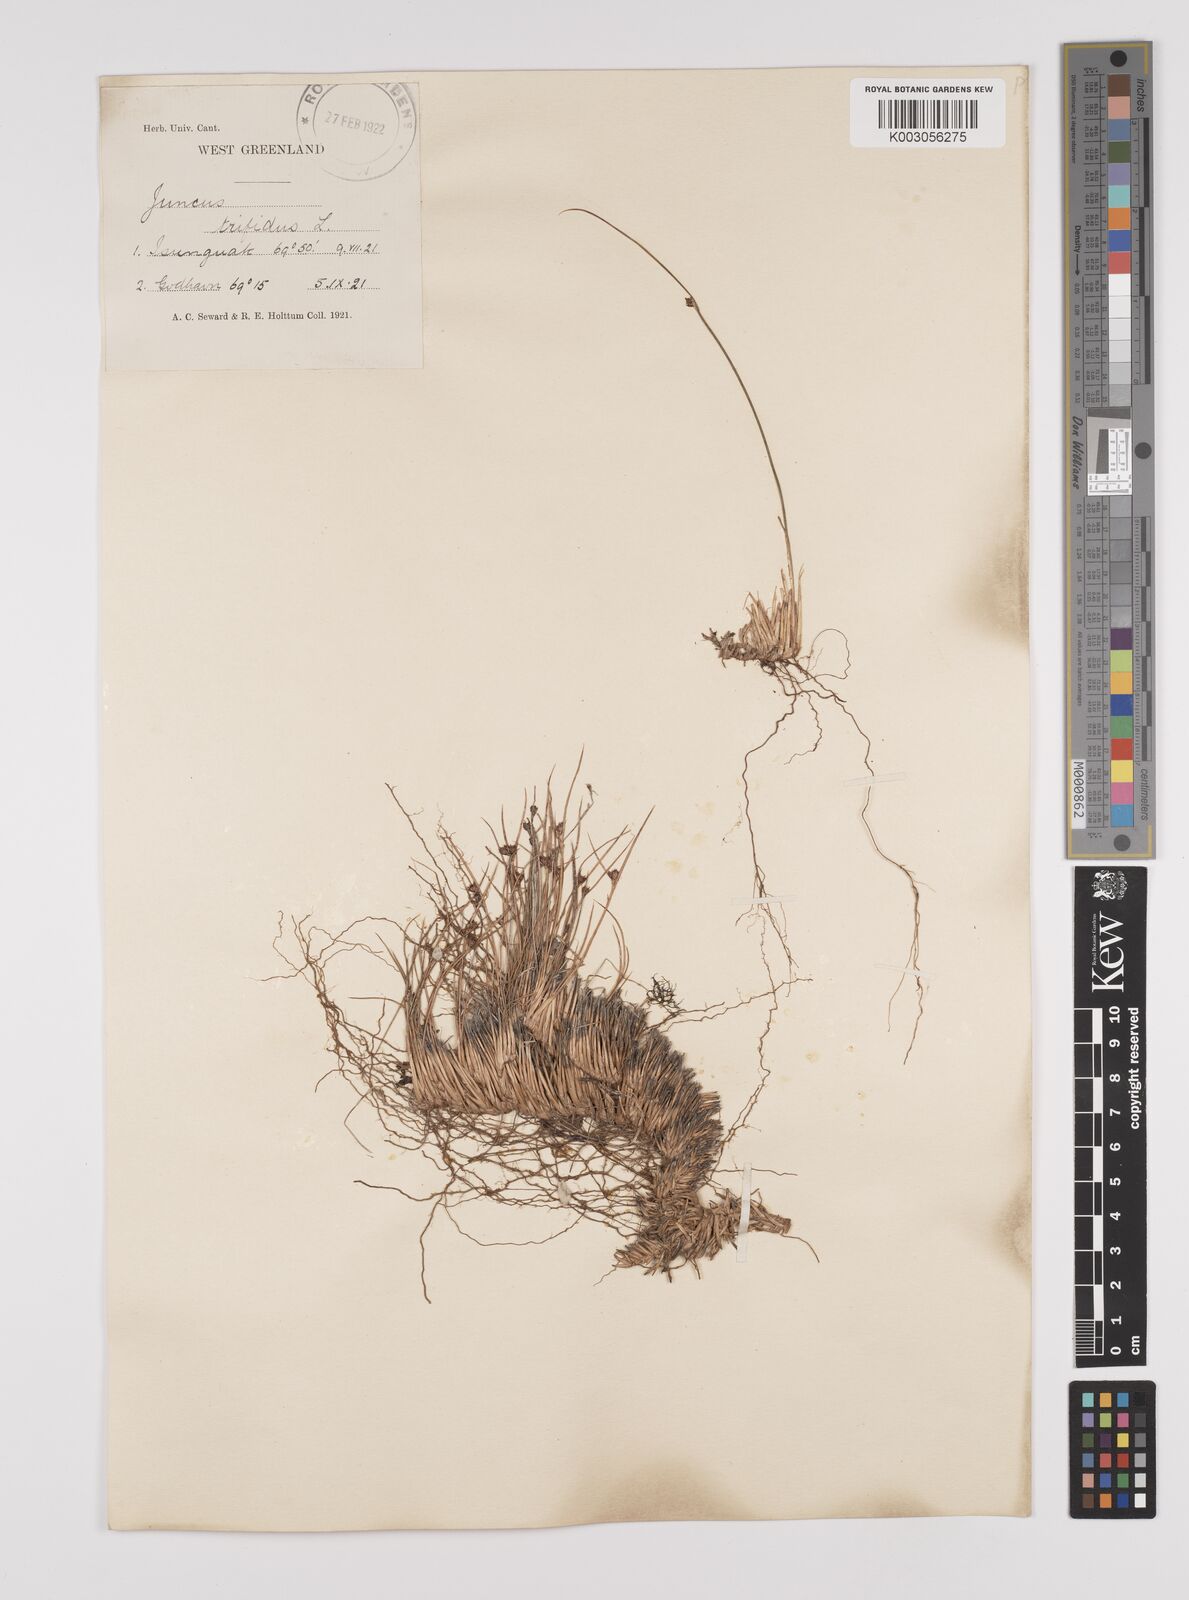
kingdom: Plantae
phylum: Tracheophyta
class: Liliopsida
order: Poales
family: Juncaceae
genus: Oreojuncus
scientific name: Oreojuncus trifidus
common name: Highland rush
